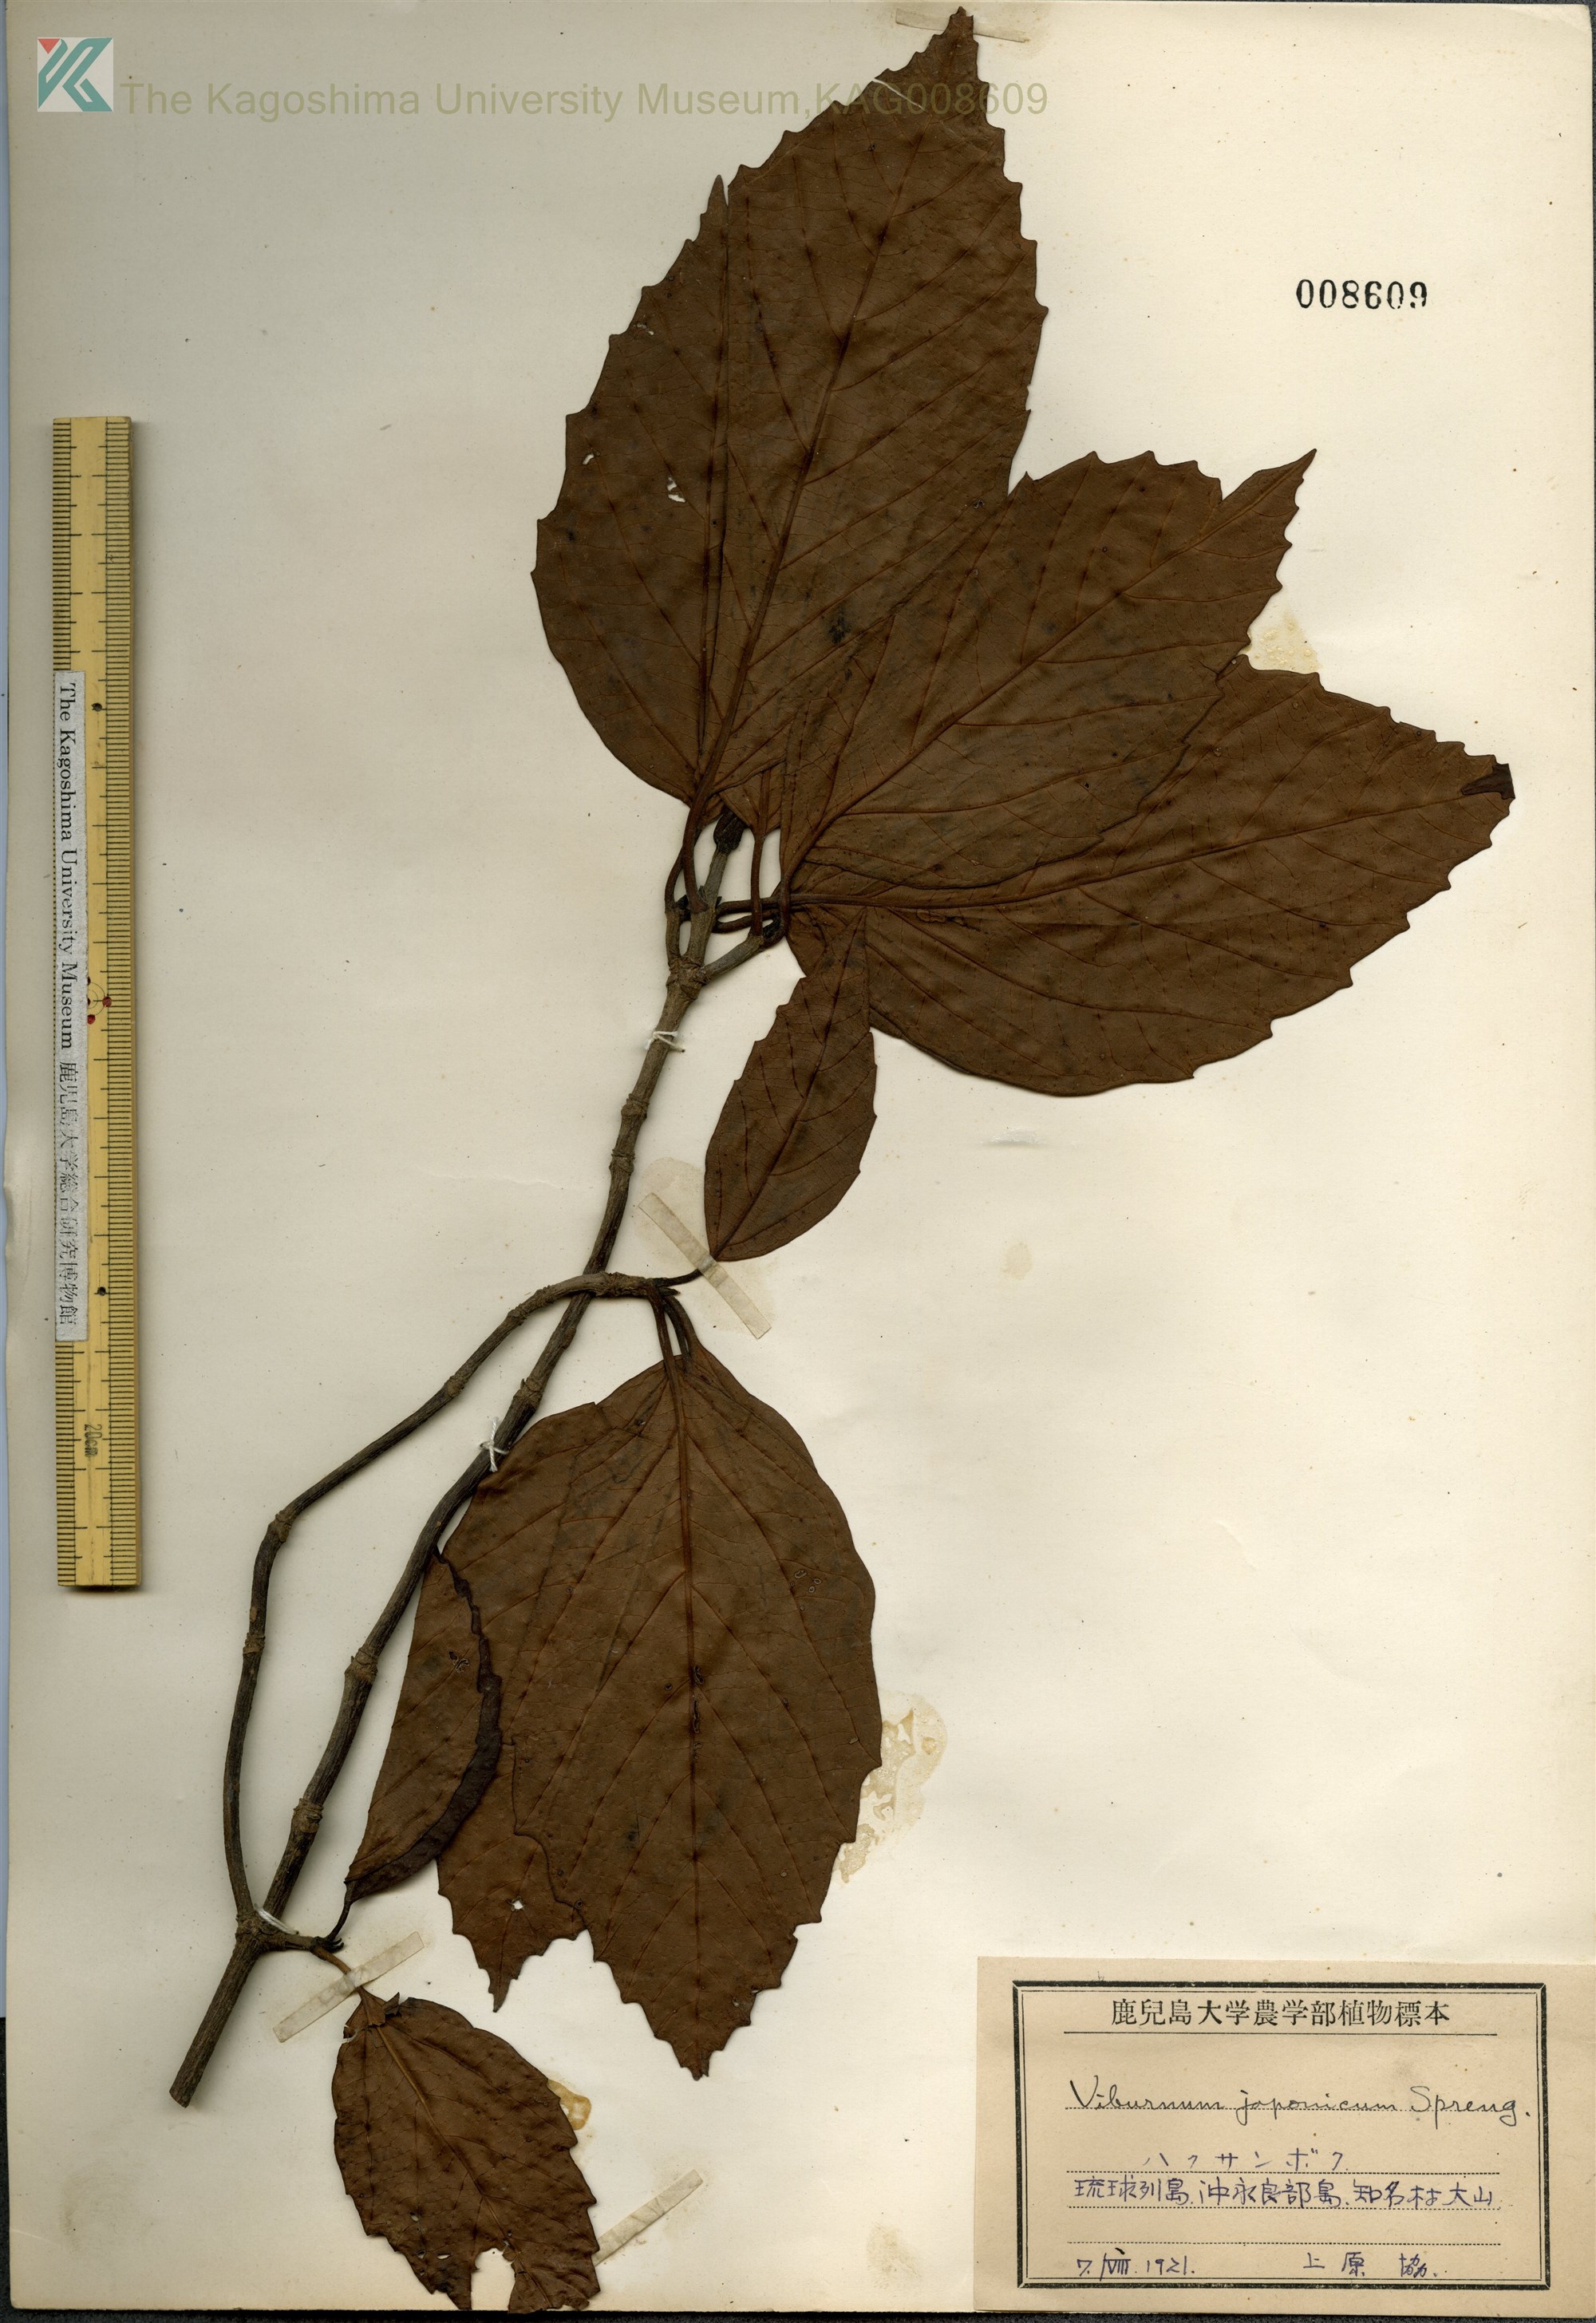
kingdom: Plantae
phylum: Tracheophyta
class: Magnoliopsida
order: Dipsacales
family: Viburnaceae
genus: Viburnum
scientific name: Viburnum japonicum
